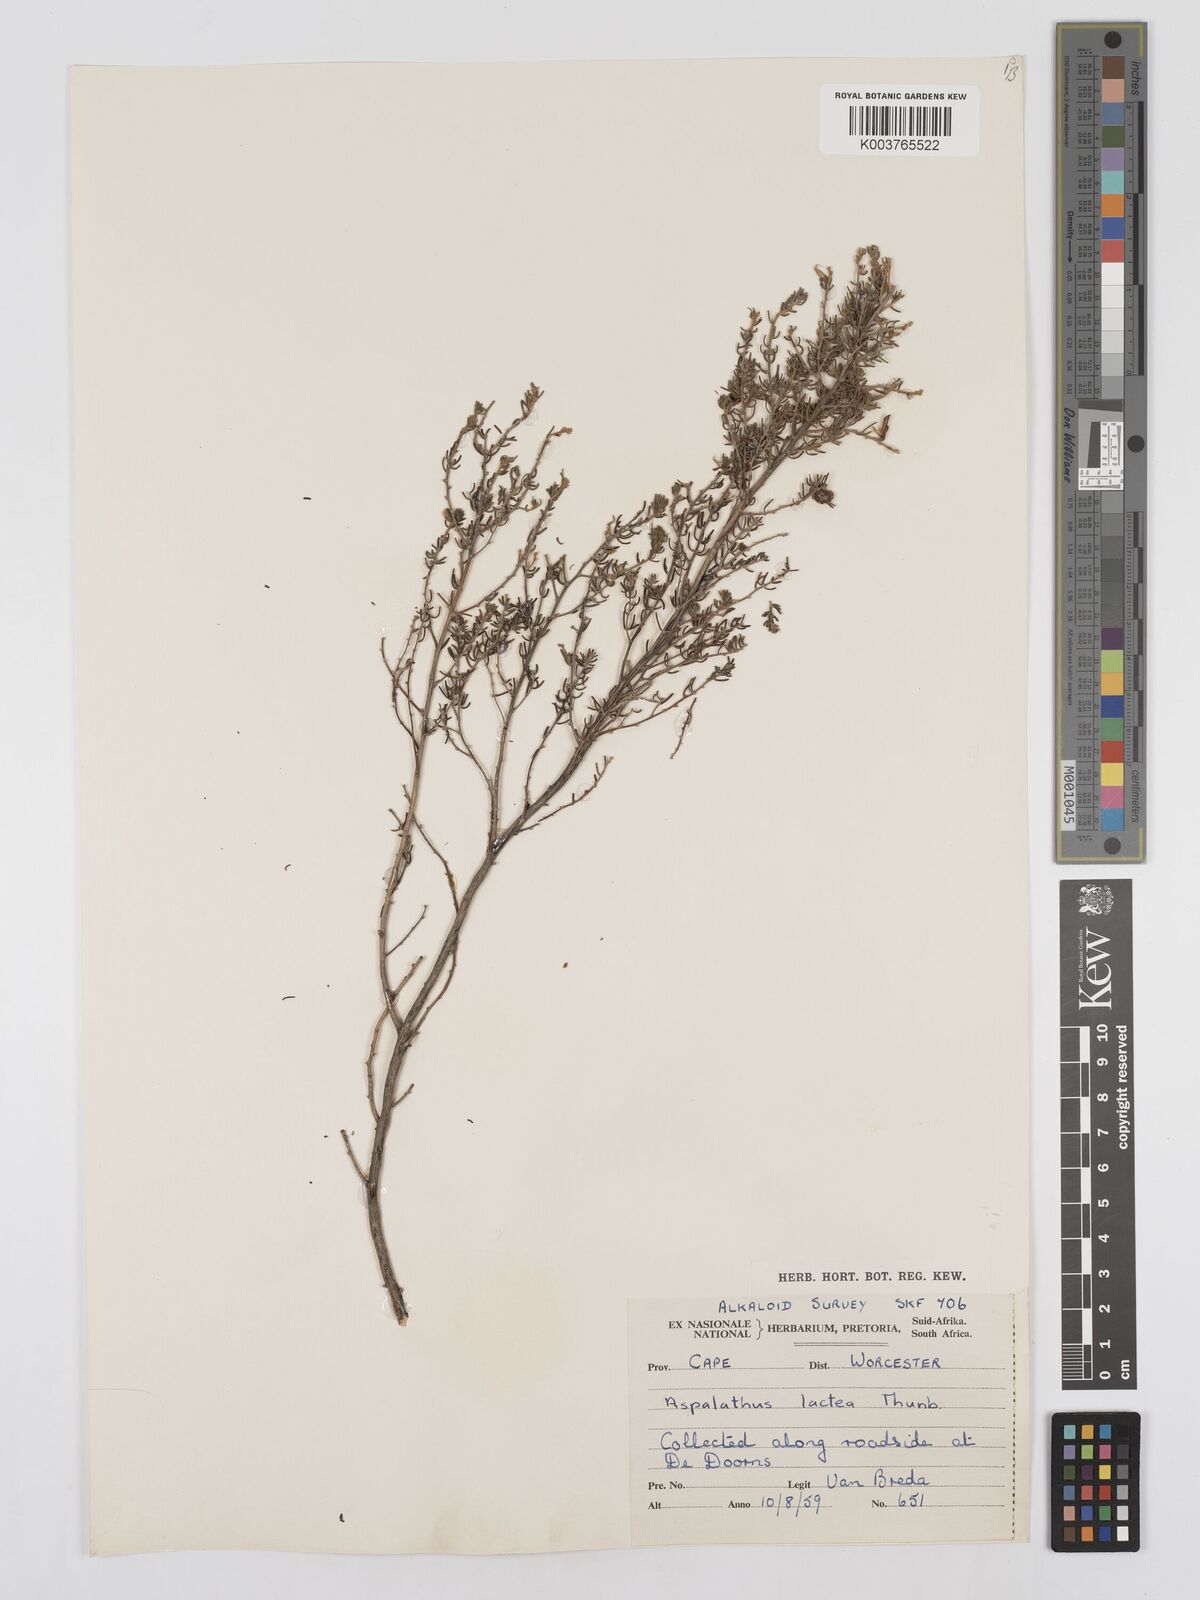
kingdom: Plantae
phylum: Tracheophyta
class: Magnoliopsida
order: Fabales
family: Fabaceae
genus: Aspalathus
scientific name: Aspalathus lactea
